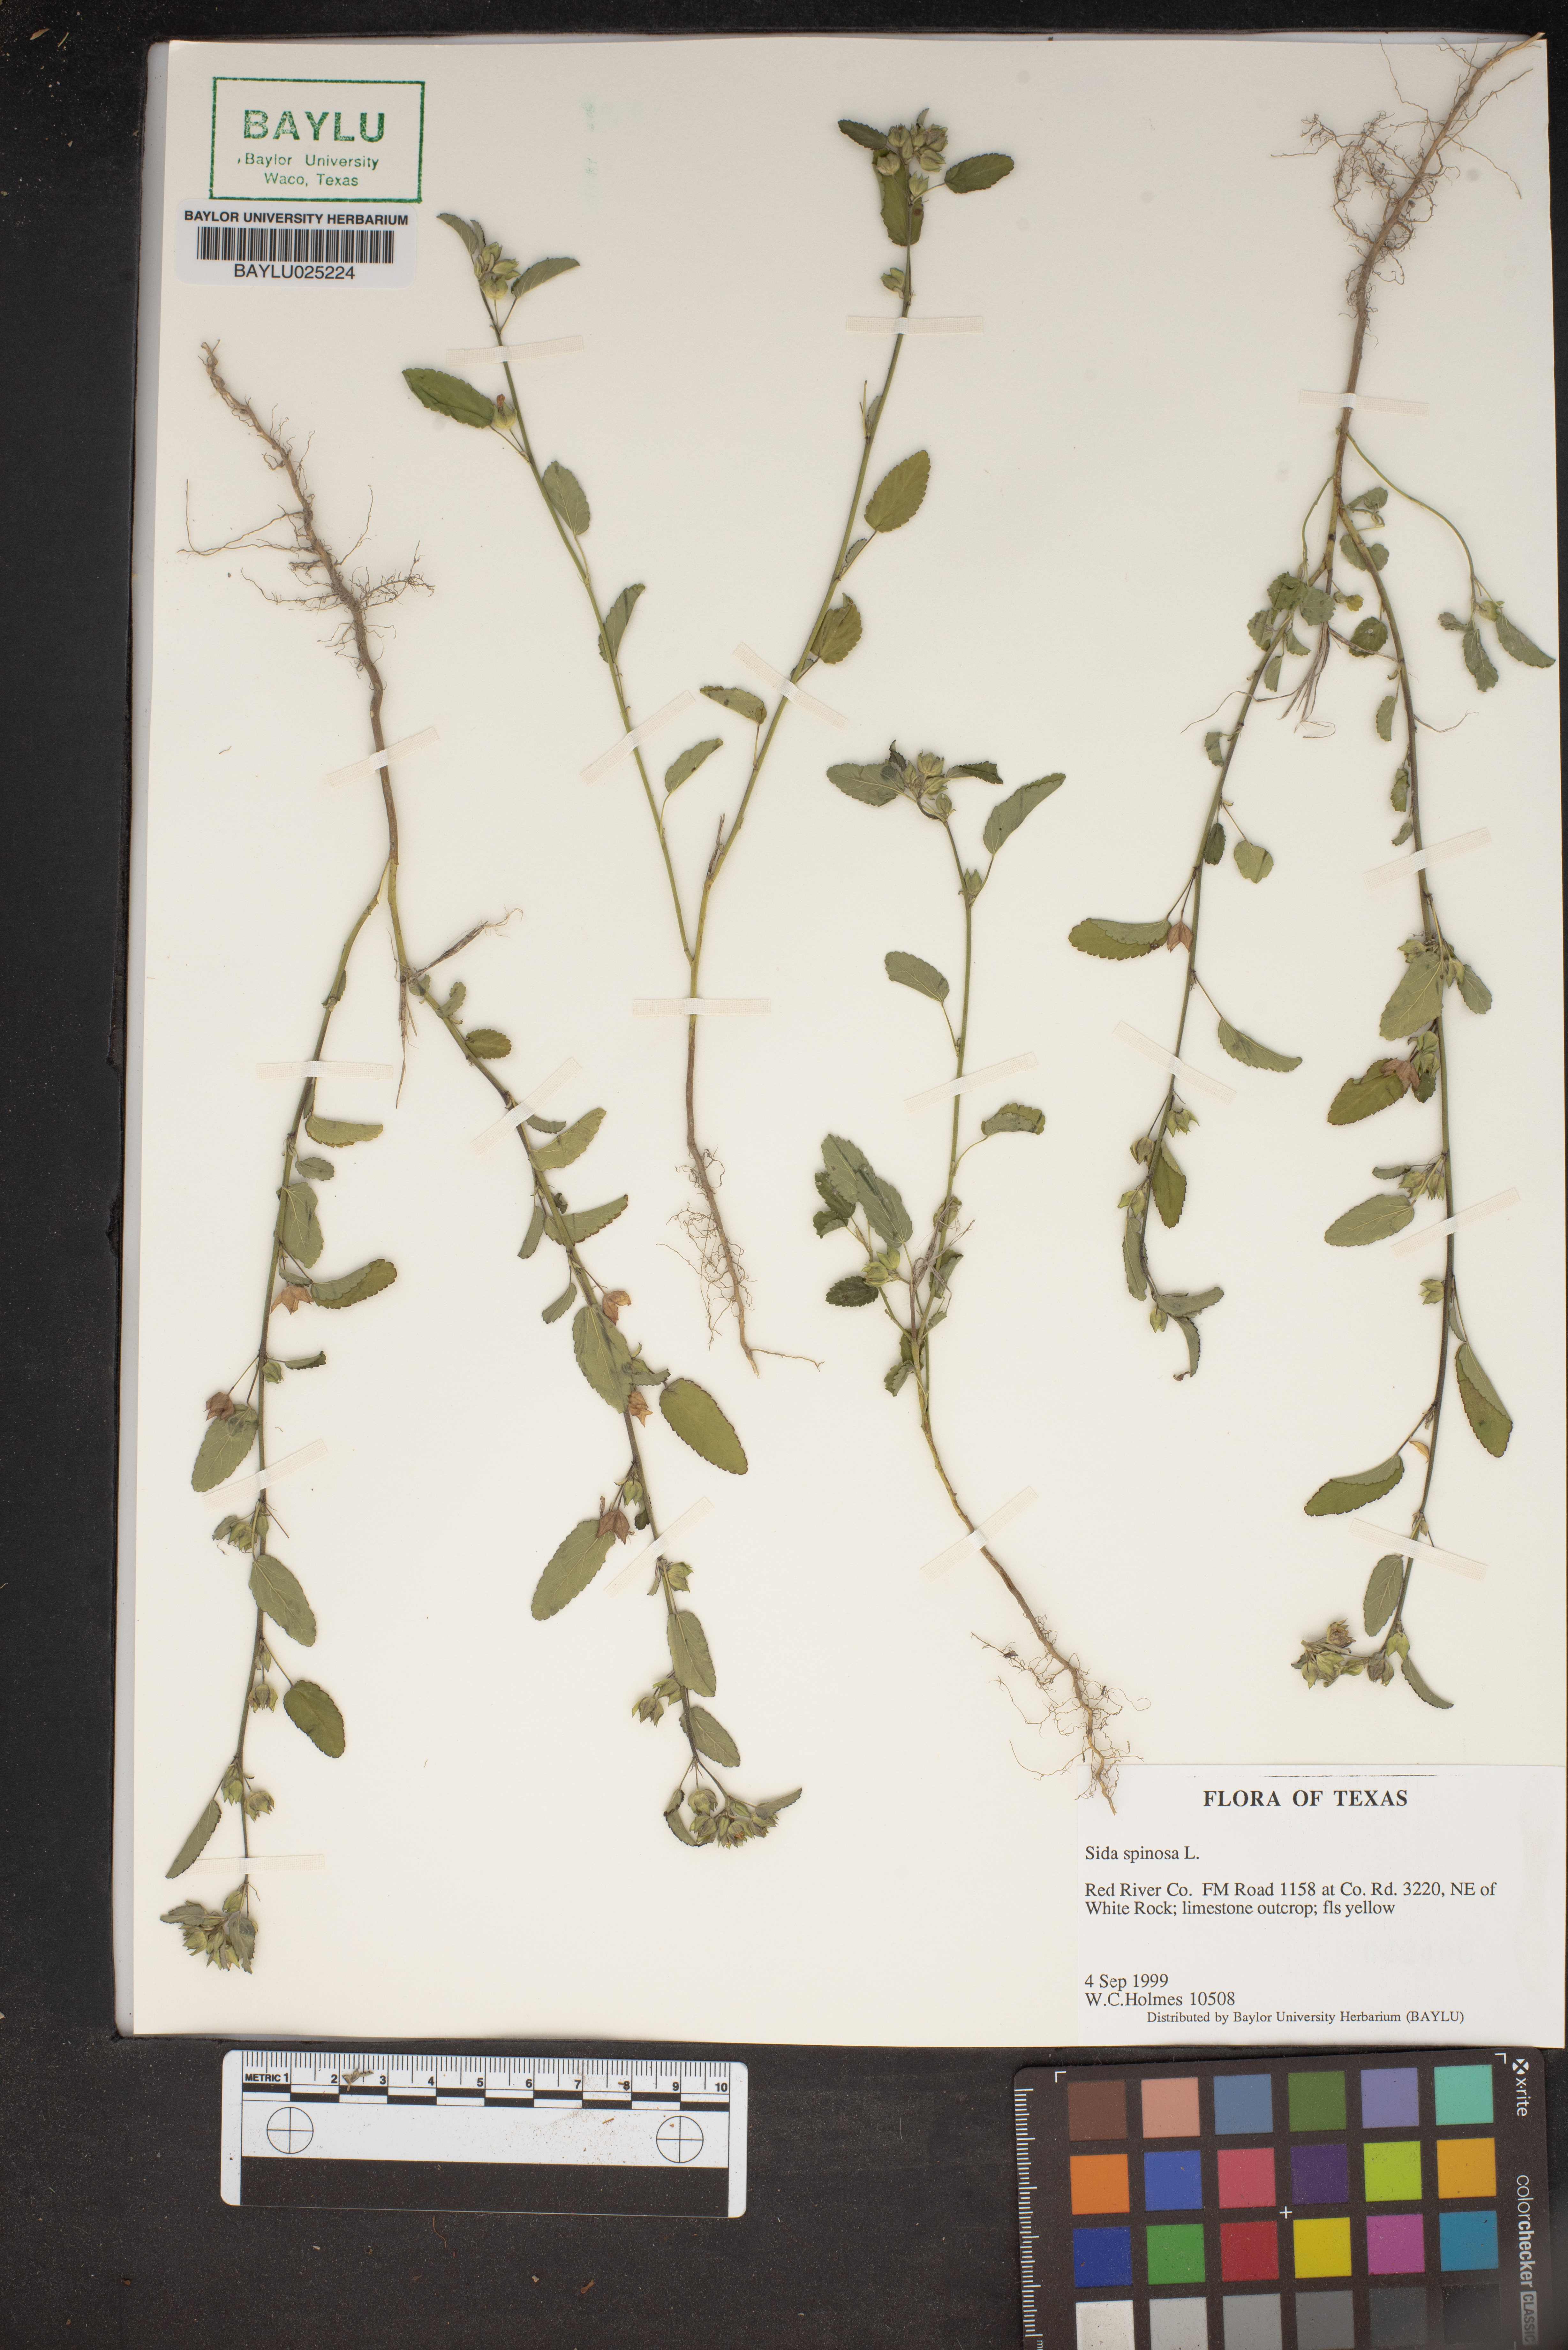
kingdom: Plantae
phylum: Tracheophyta
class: Magnoliopsida
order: Malvales
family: Malvaceae
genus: Sida
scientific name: Sida spinosa
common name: Prickly fanpetals
